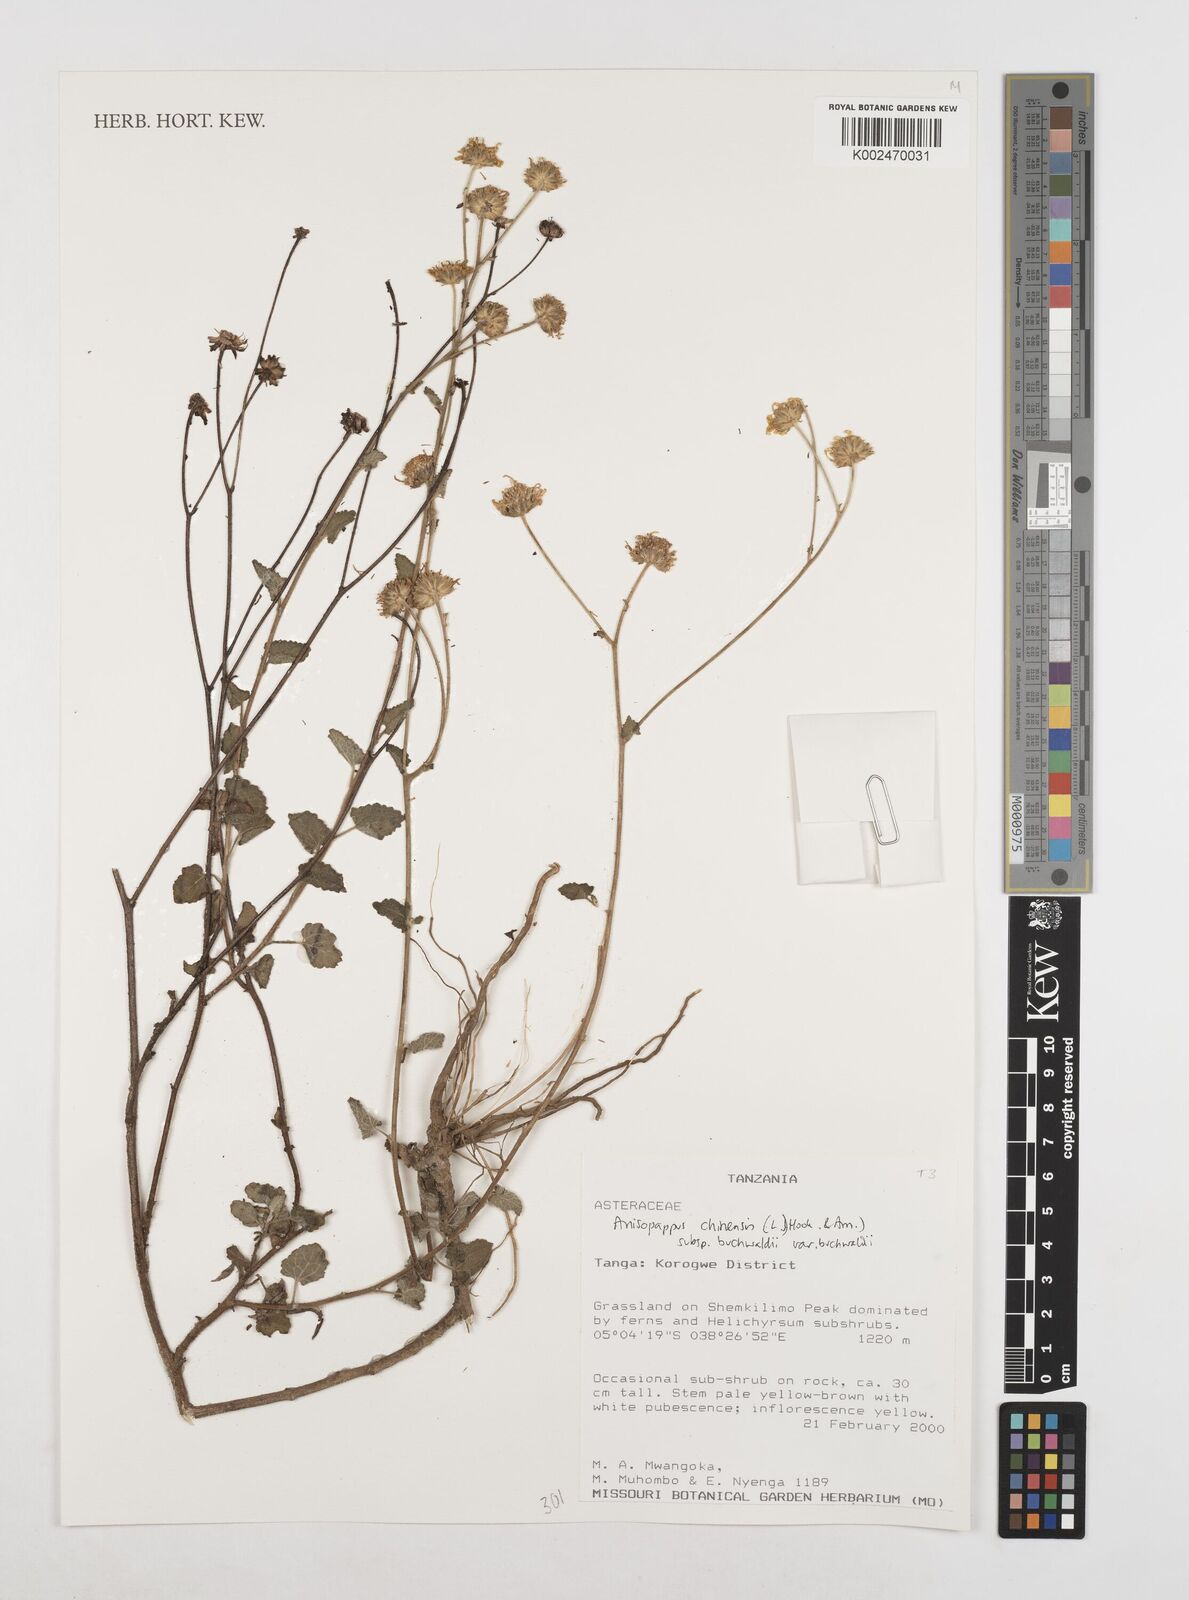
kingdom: Plantae
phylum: Tracheophyta
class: Magnoliopsida
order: Asterales
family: Asteraceae
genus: Anisopappus
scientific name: Anisopappus buchwaldii
